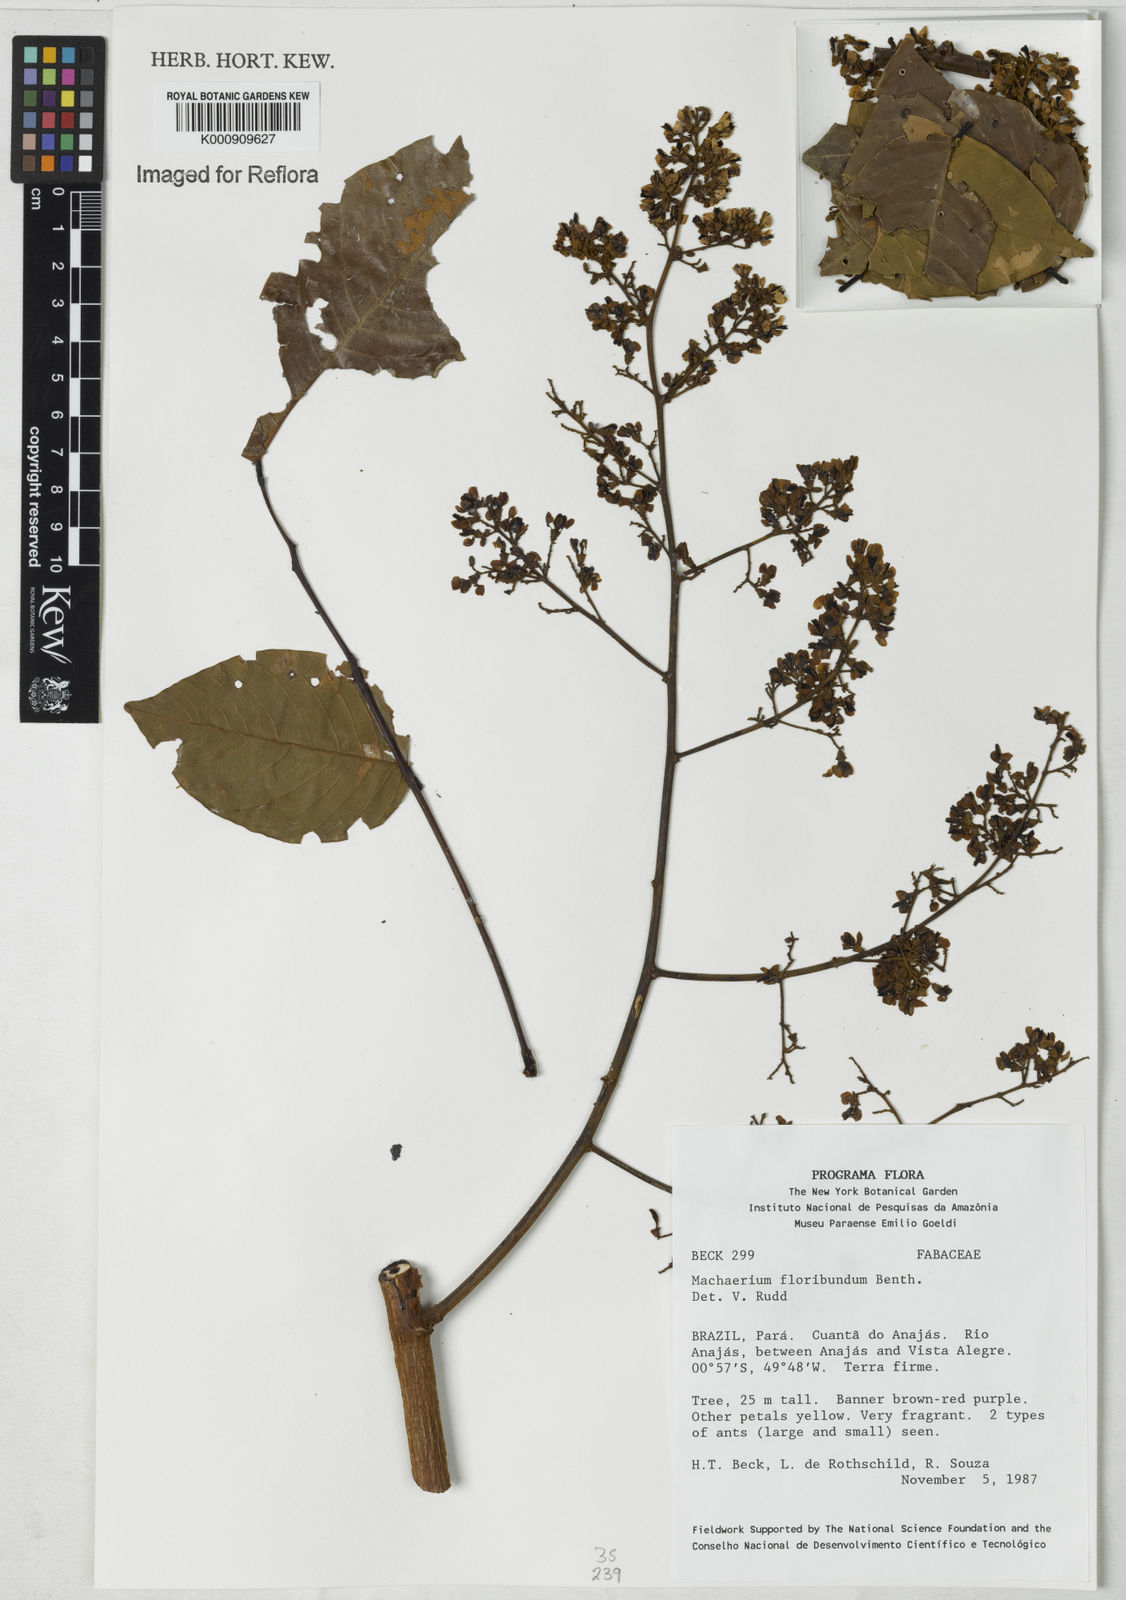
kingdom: Plantae
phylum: Tracheophyta
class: Magnoliopsida
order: Fabales
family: Fabaceae
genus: Machaerium
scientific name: Machaerium floribundum
